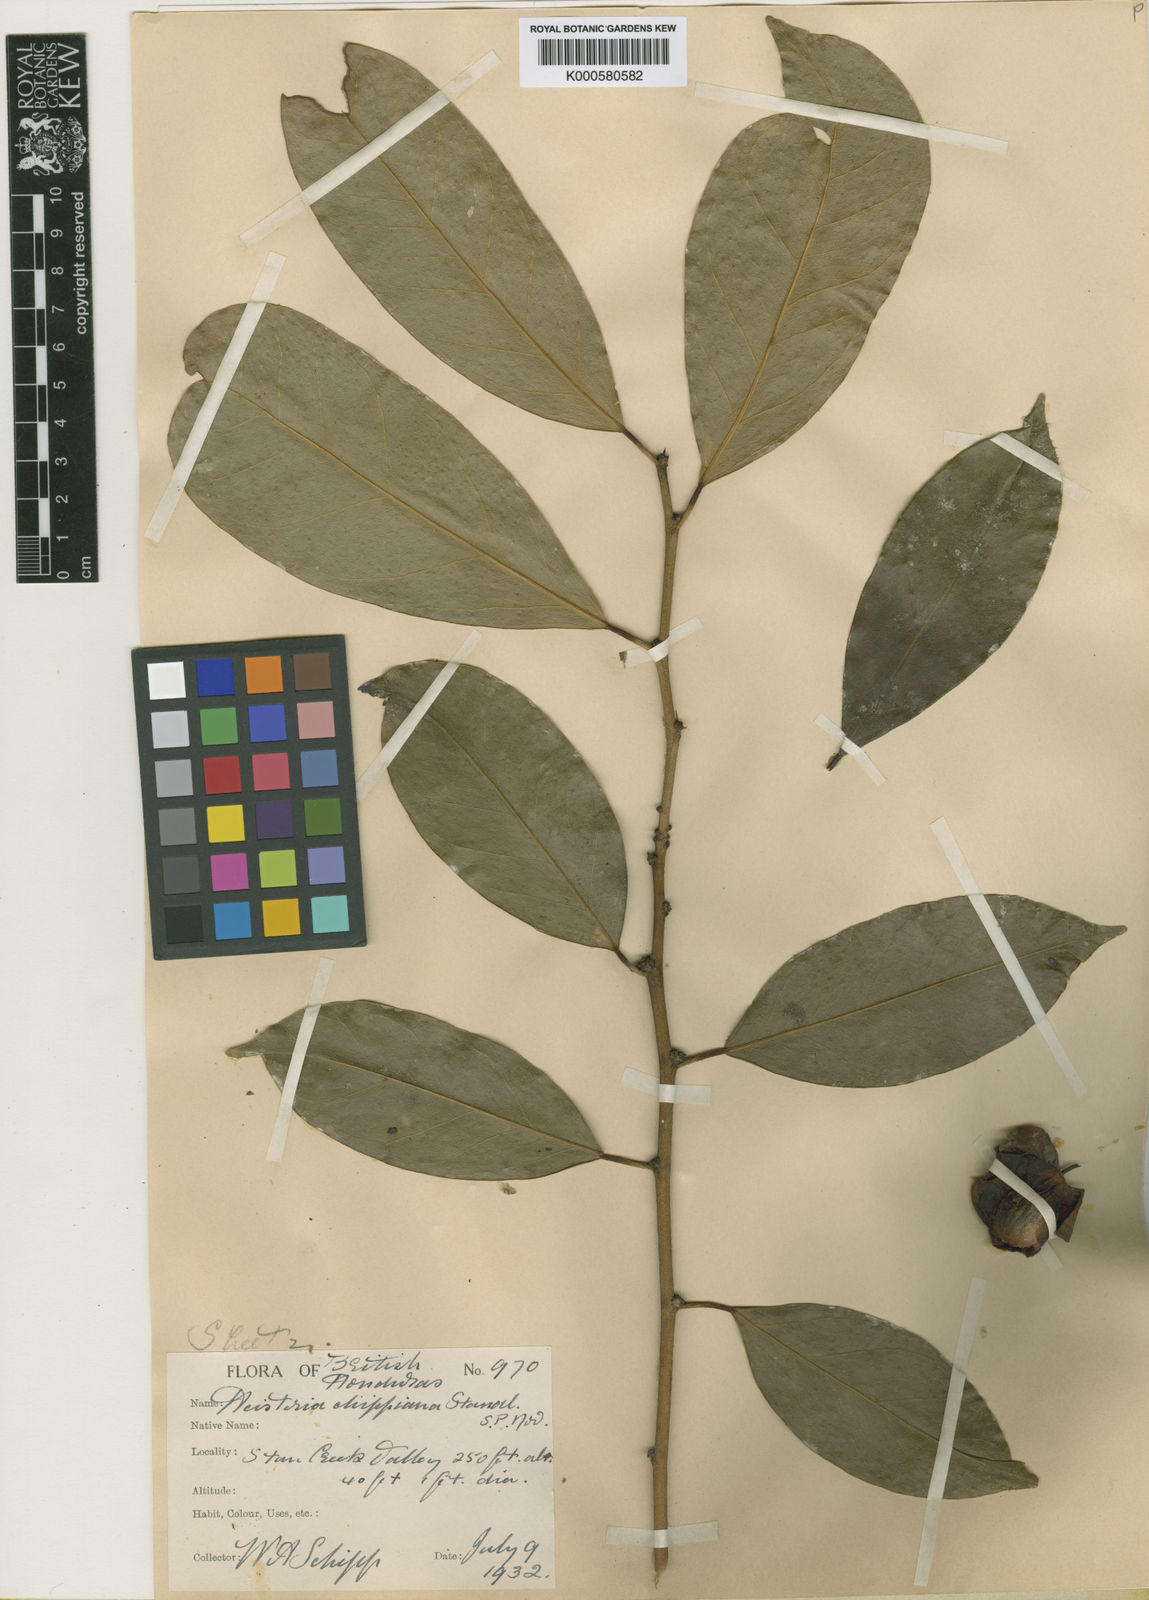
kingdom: Plantae
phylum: Tracheophyta
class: Magnoliopsida
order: Santalales
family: Erythropalaceae
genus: Heisteria
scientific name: Heisteria media
